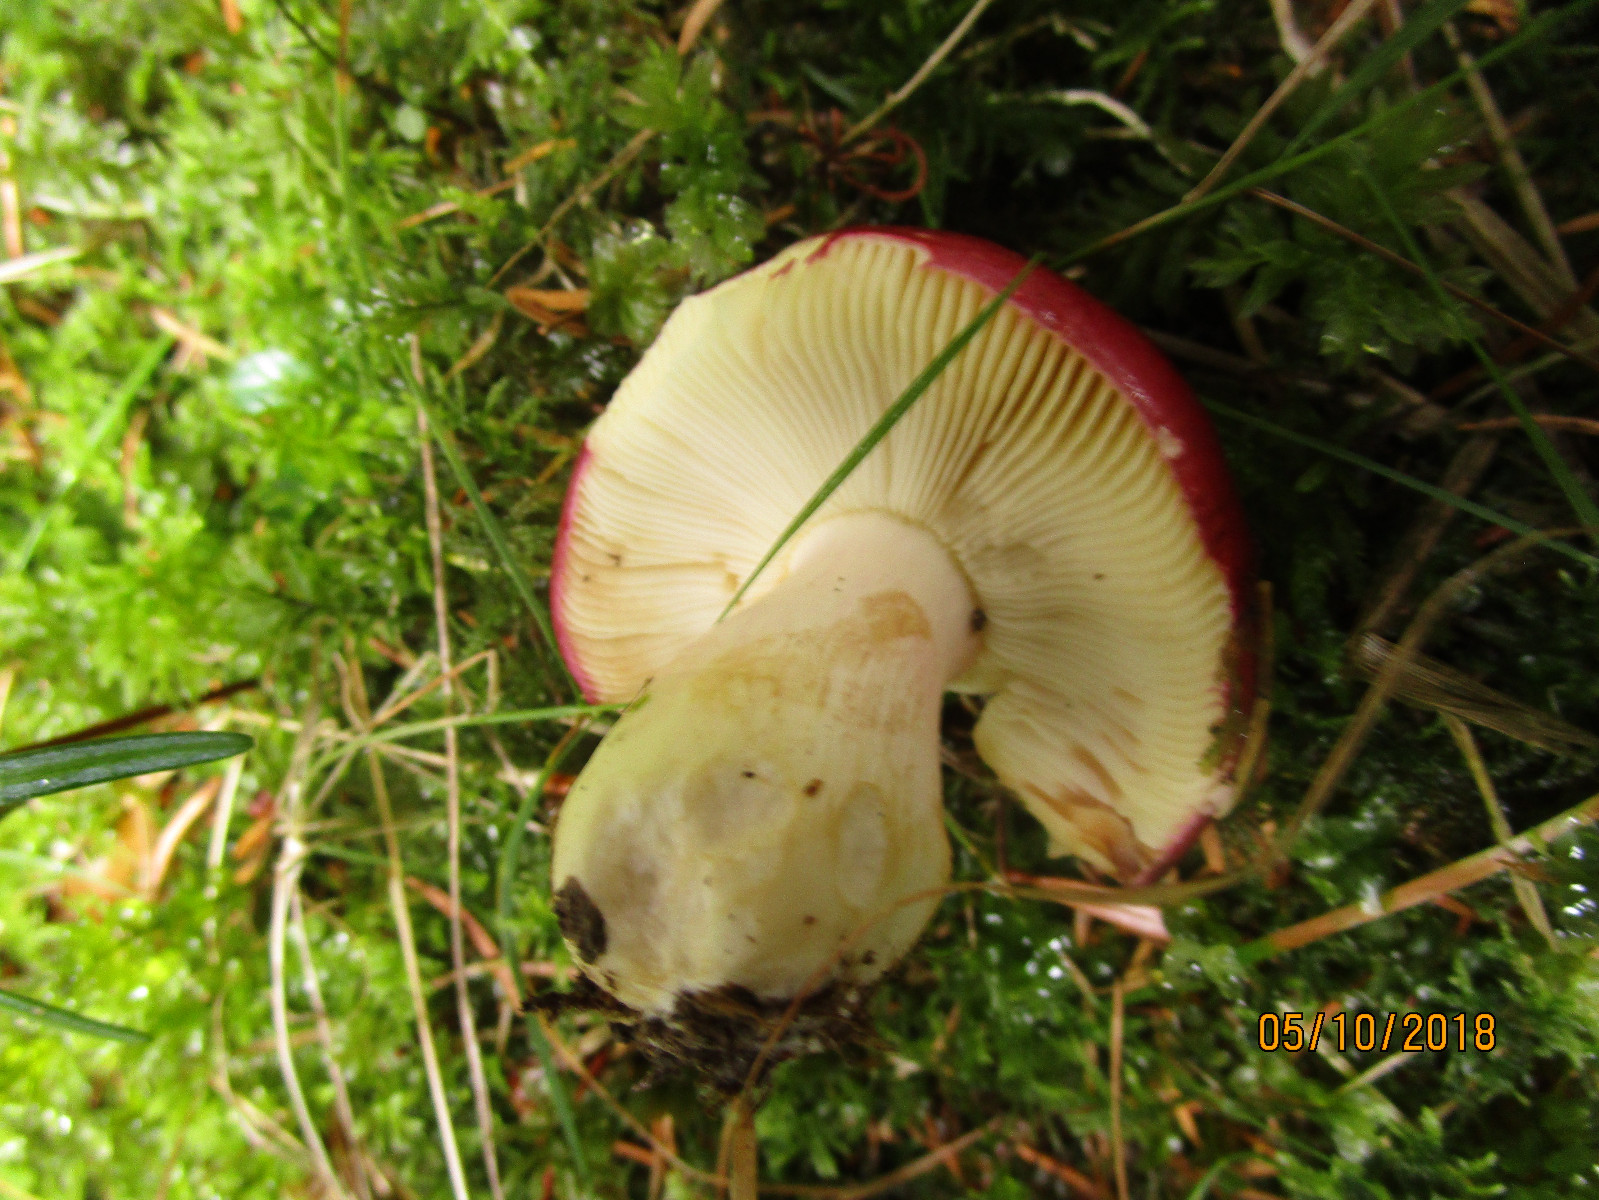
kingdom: Fungi
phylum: Basidiomycota
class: Agaricomycetes
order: Russulales
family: Russulaceae
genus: Russula
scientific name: Russula xerampelina
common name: hummer-skørhat
